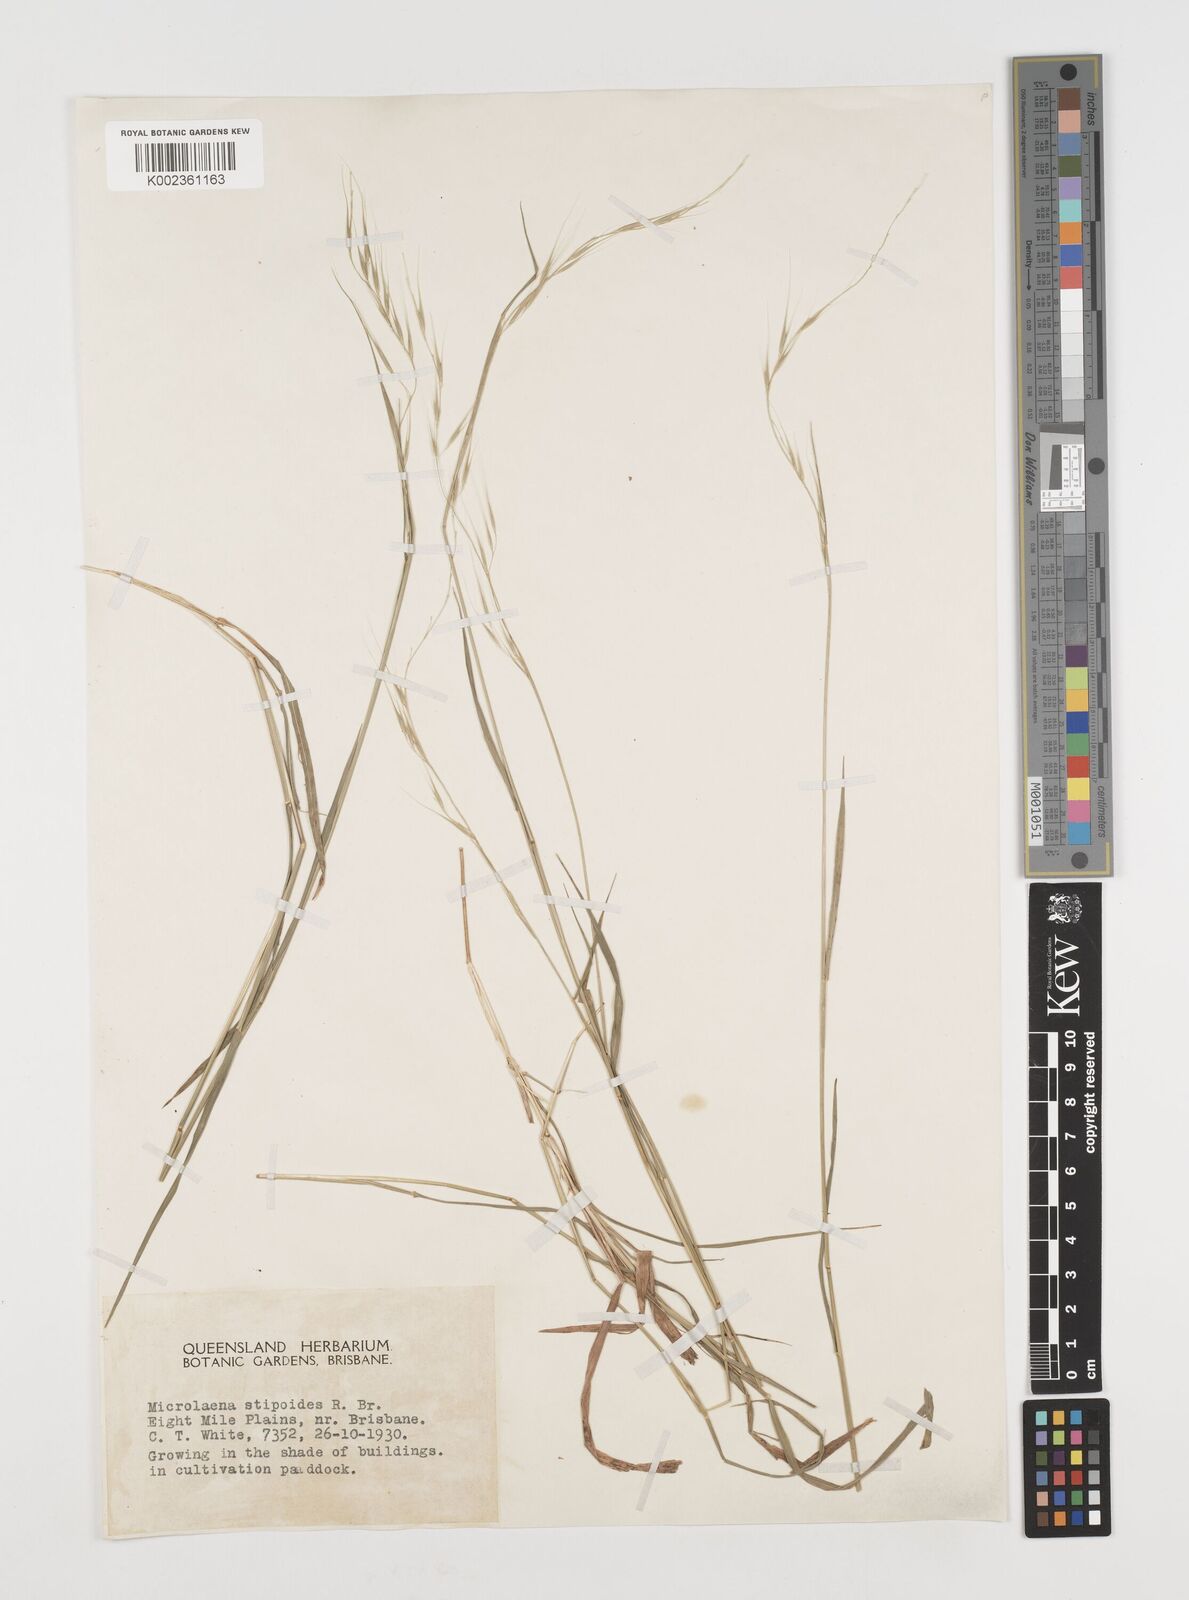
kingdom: Plantae
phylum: Tracheophyta
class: Liliopsida
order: Poales
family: Poaceae
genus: Microlaena
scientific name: Microlaena stipoides
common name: Meadow ricegrass
